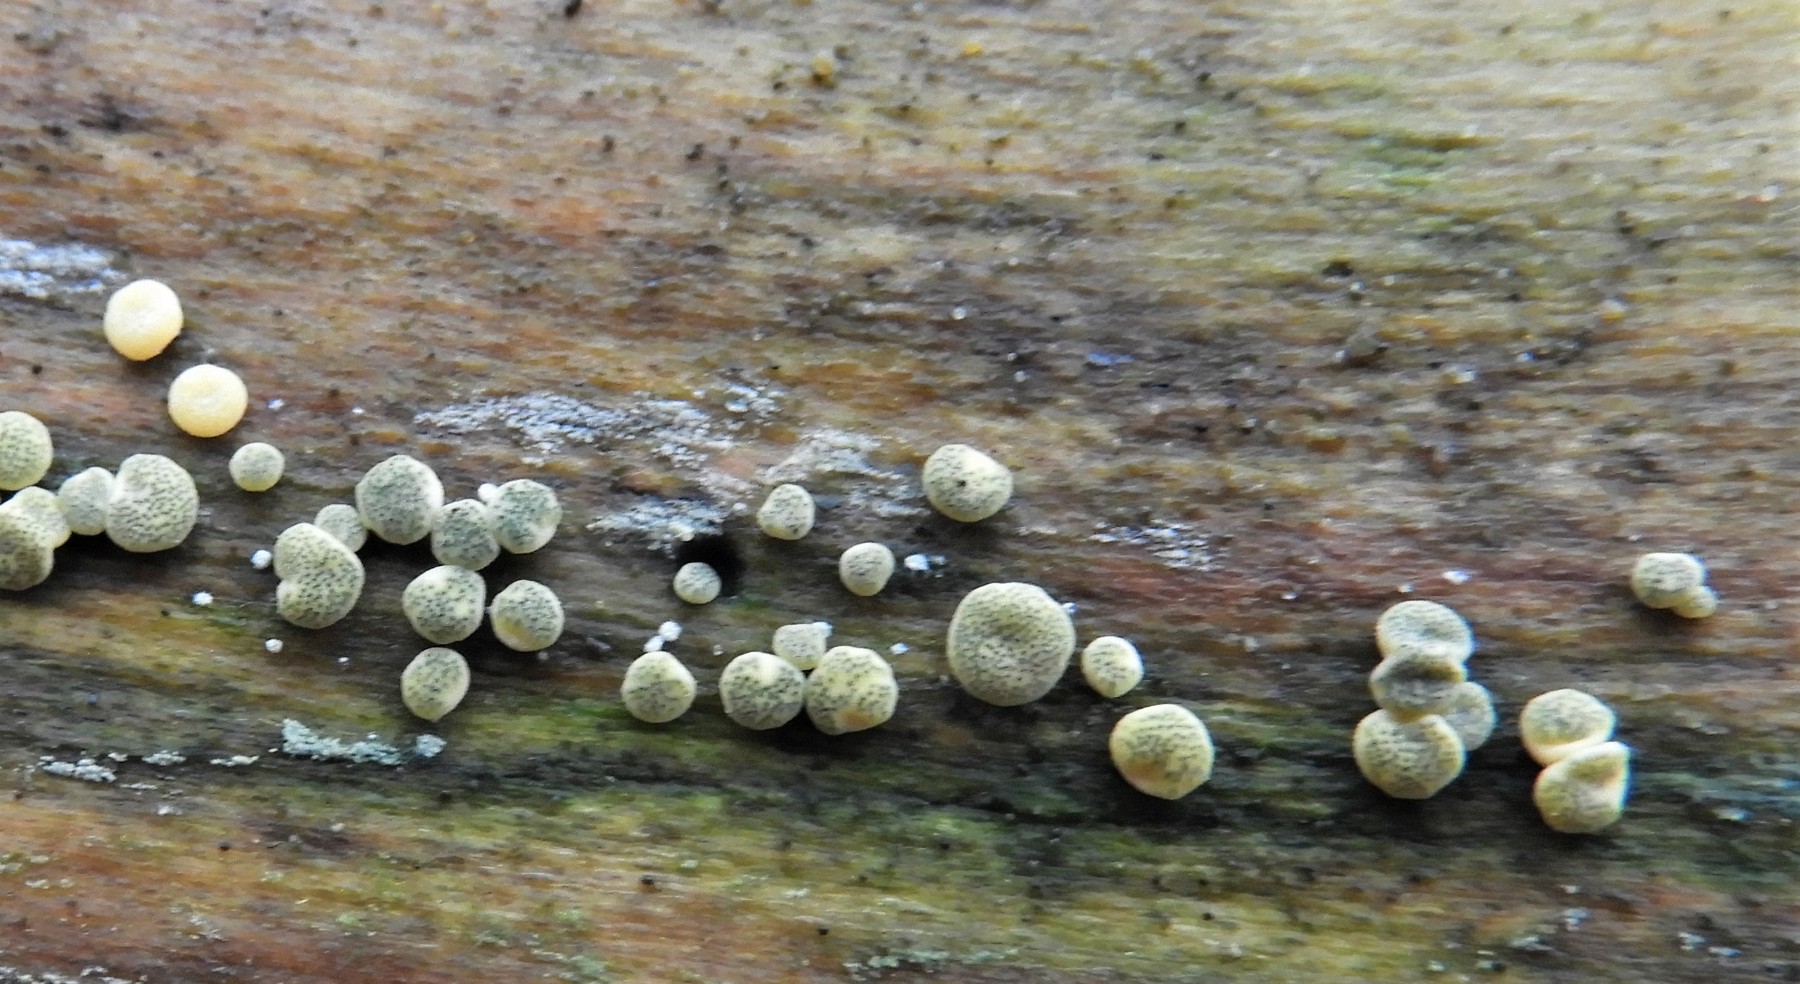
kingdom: Fungi
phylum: Ascomycota
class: Sordariomycetes
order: Hypocreales
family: Hypocreaceae
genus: Trichoderma
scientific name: Trichoderma aureoviride
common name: æggegul kødkerne
